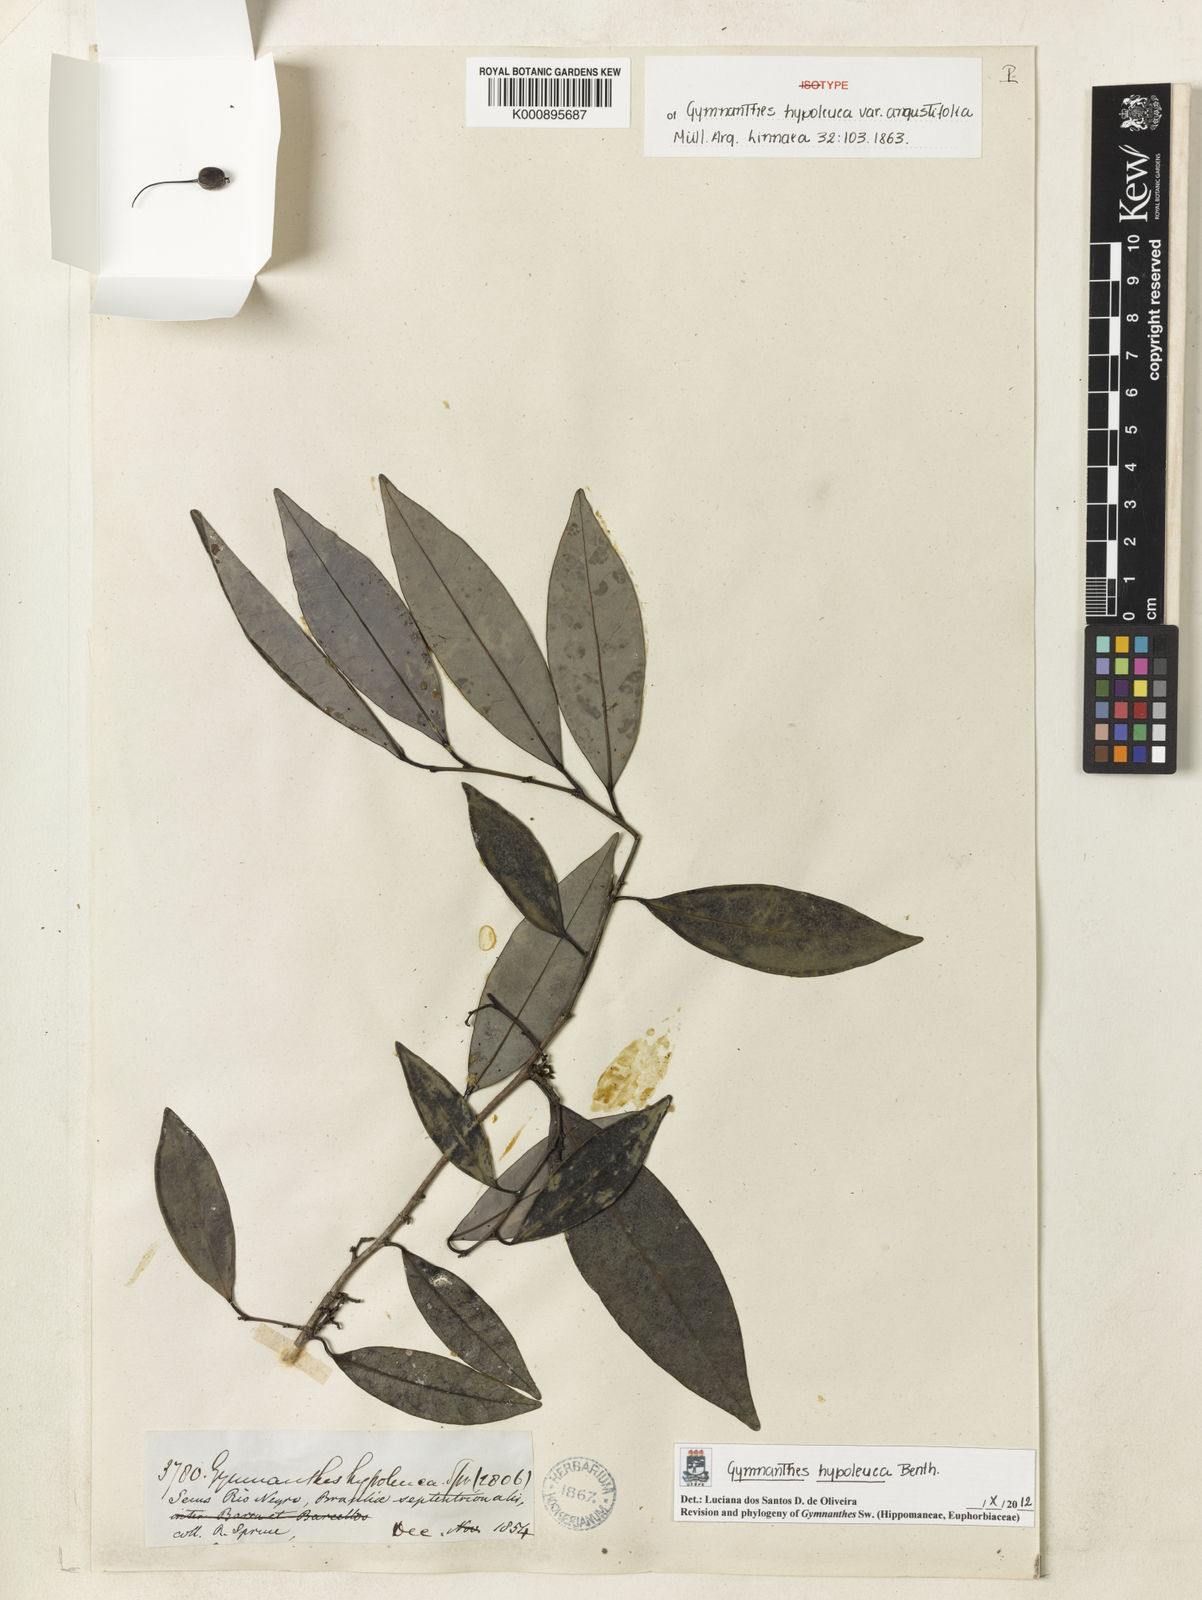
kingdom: Plantae
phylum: Tracheophyta
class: Magnoliopsida
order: Malpighiales
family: Euphorbiaceae
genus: Gymnanthes
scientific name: Gymnanthes hypoleuca
